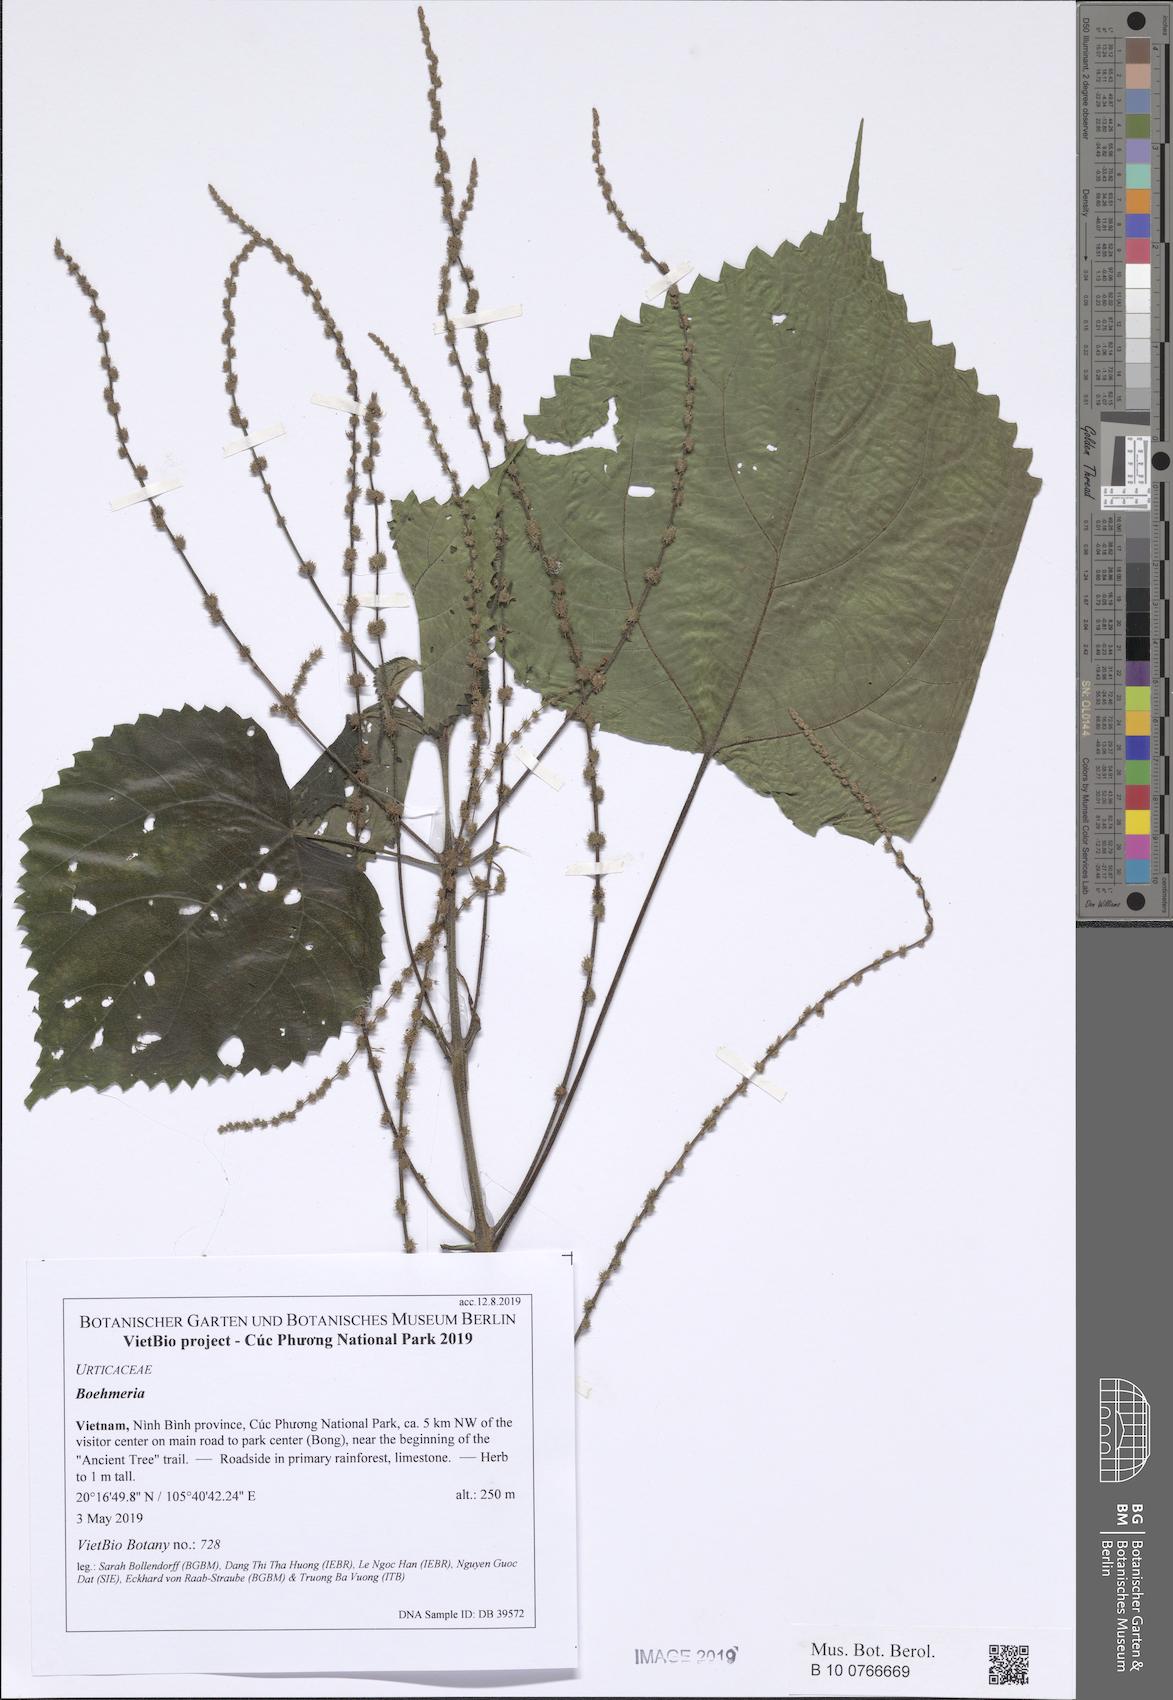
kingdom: Plantae
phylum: Tracheophyta
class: Magnoliopsida
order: Rosales
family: Urticaceae
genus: Laportea
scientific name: Laportea disepala
